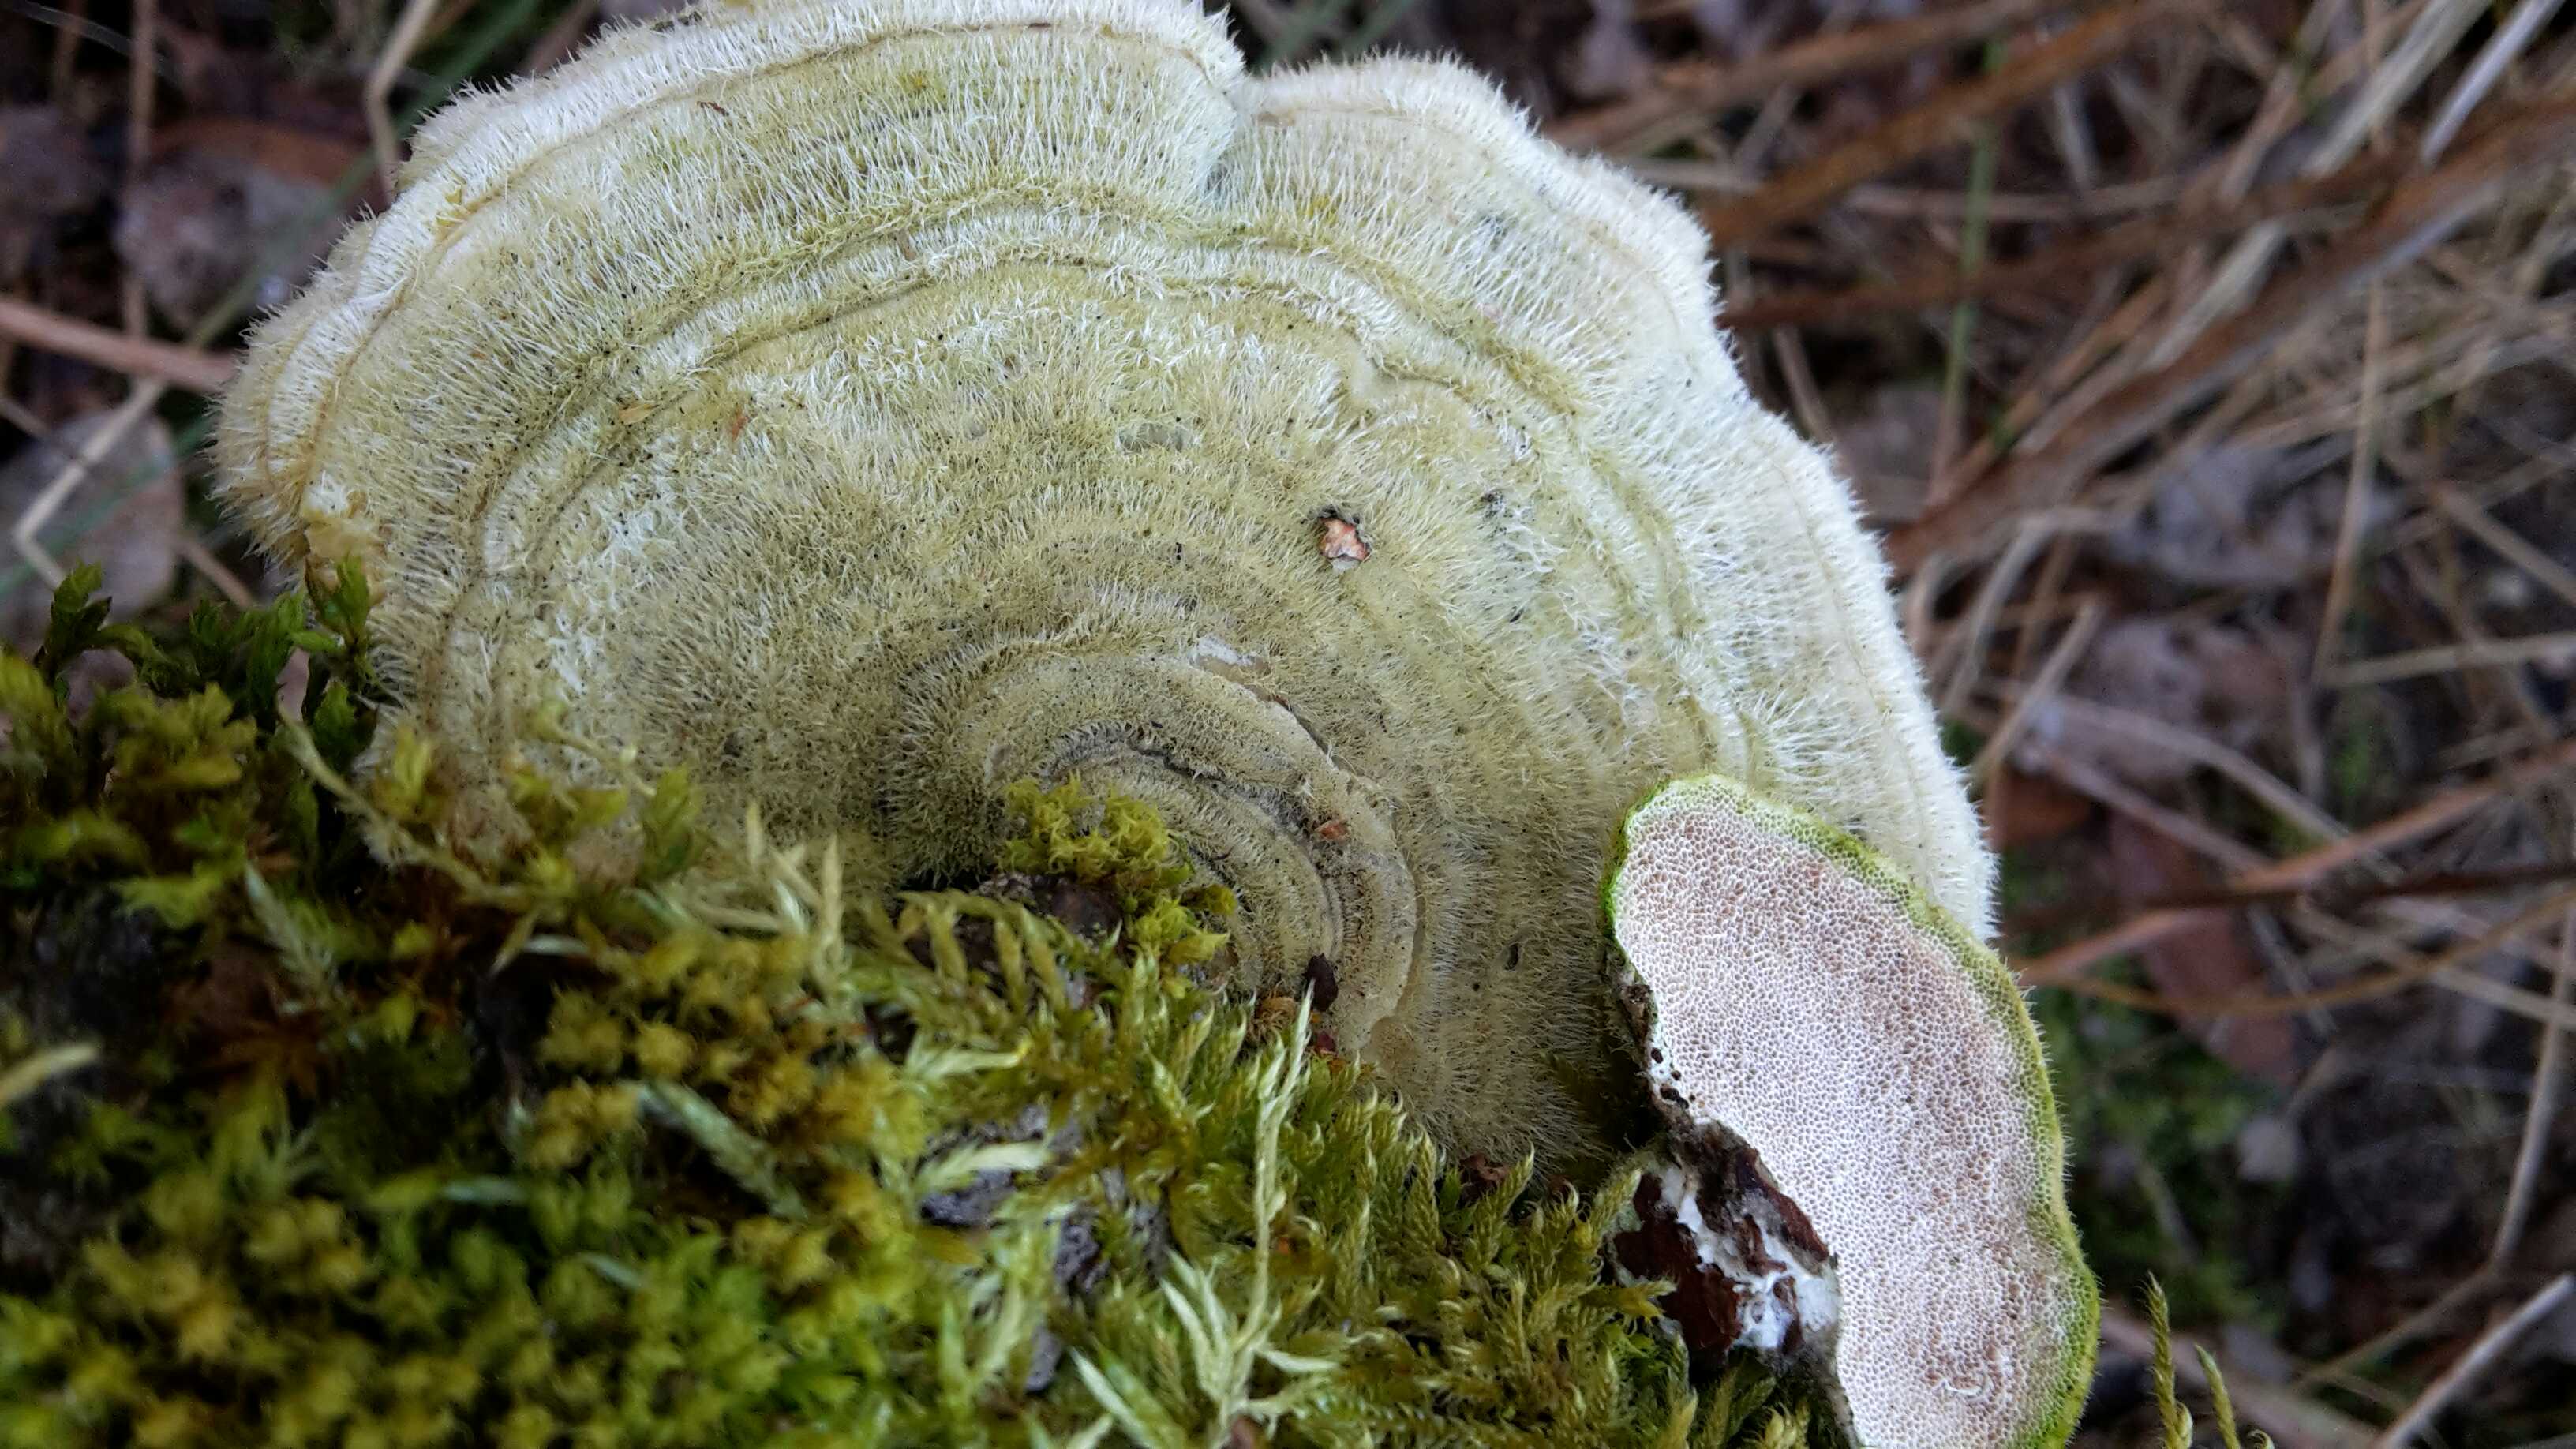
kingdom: Fungi
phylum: Basidiomycota
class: Agaricomycetes
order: Polyporales
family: Polyporaceae
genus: Trametes
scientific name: Trametes hirsuta
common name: håret læderporesvamp
